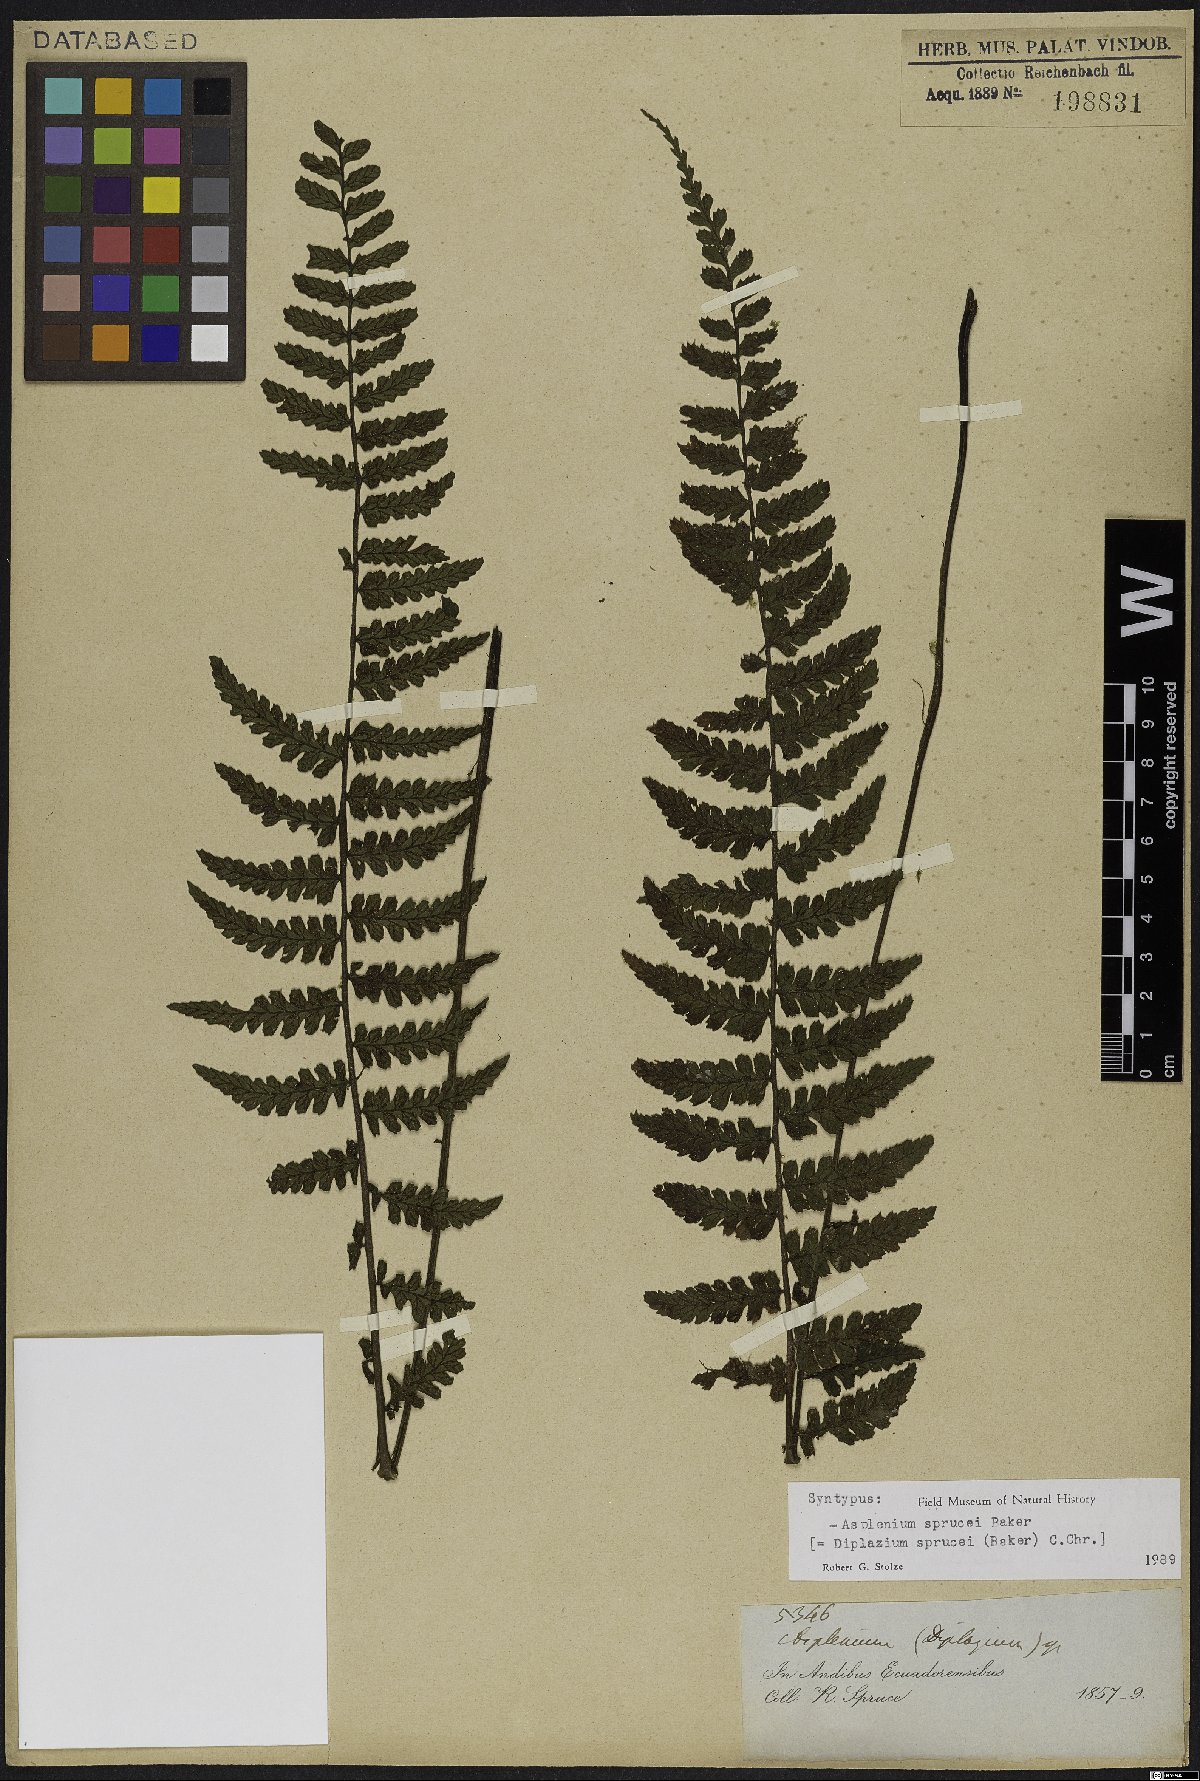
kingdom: Plantae
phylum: Tracheophyta
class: Polypodiopsida
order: Polypodiales
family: Athyriaceae
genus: Diplazium
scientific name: Diplazium sprucei
